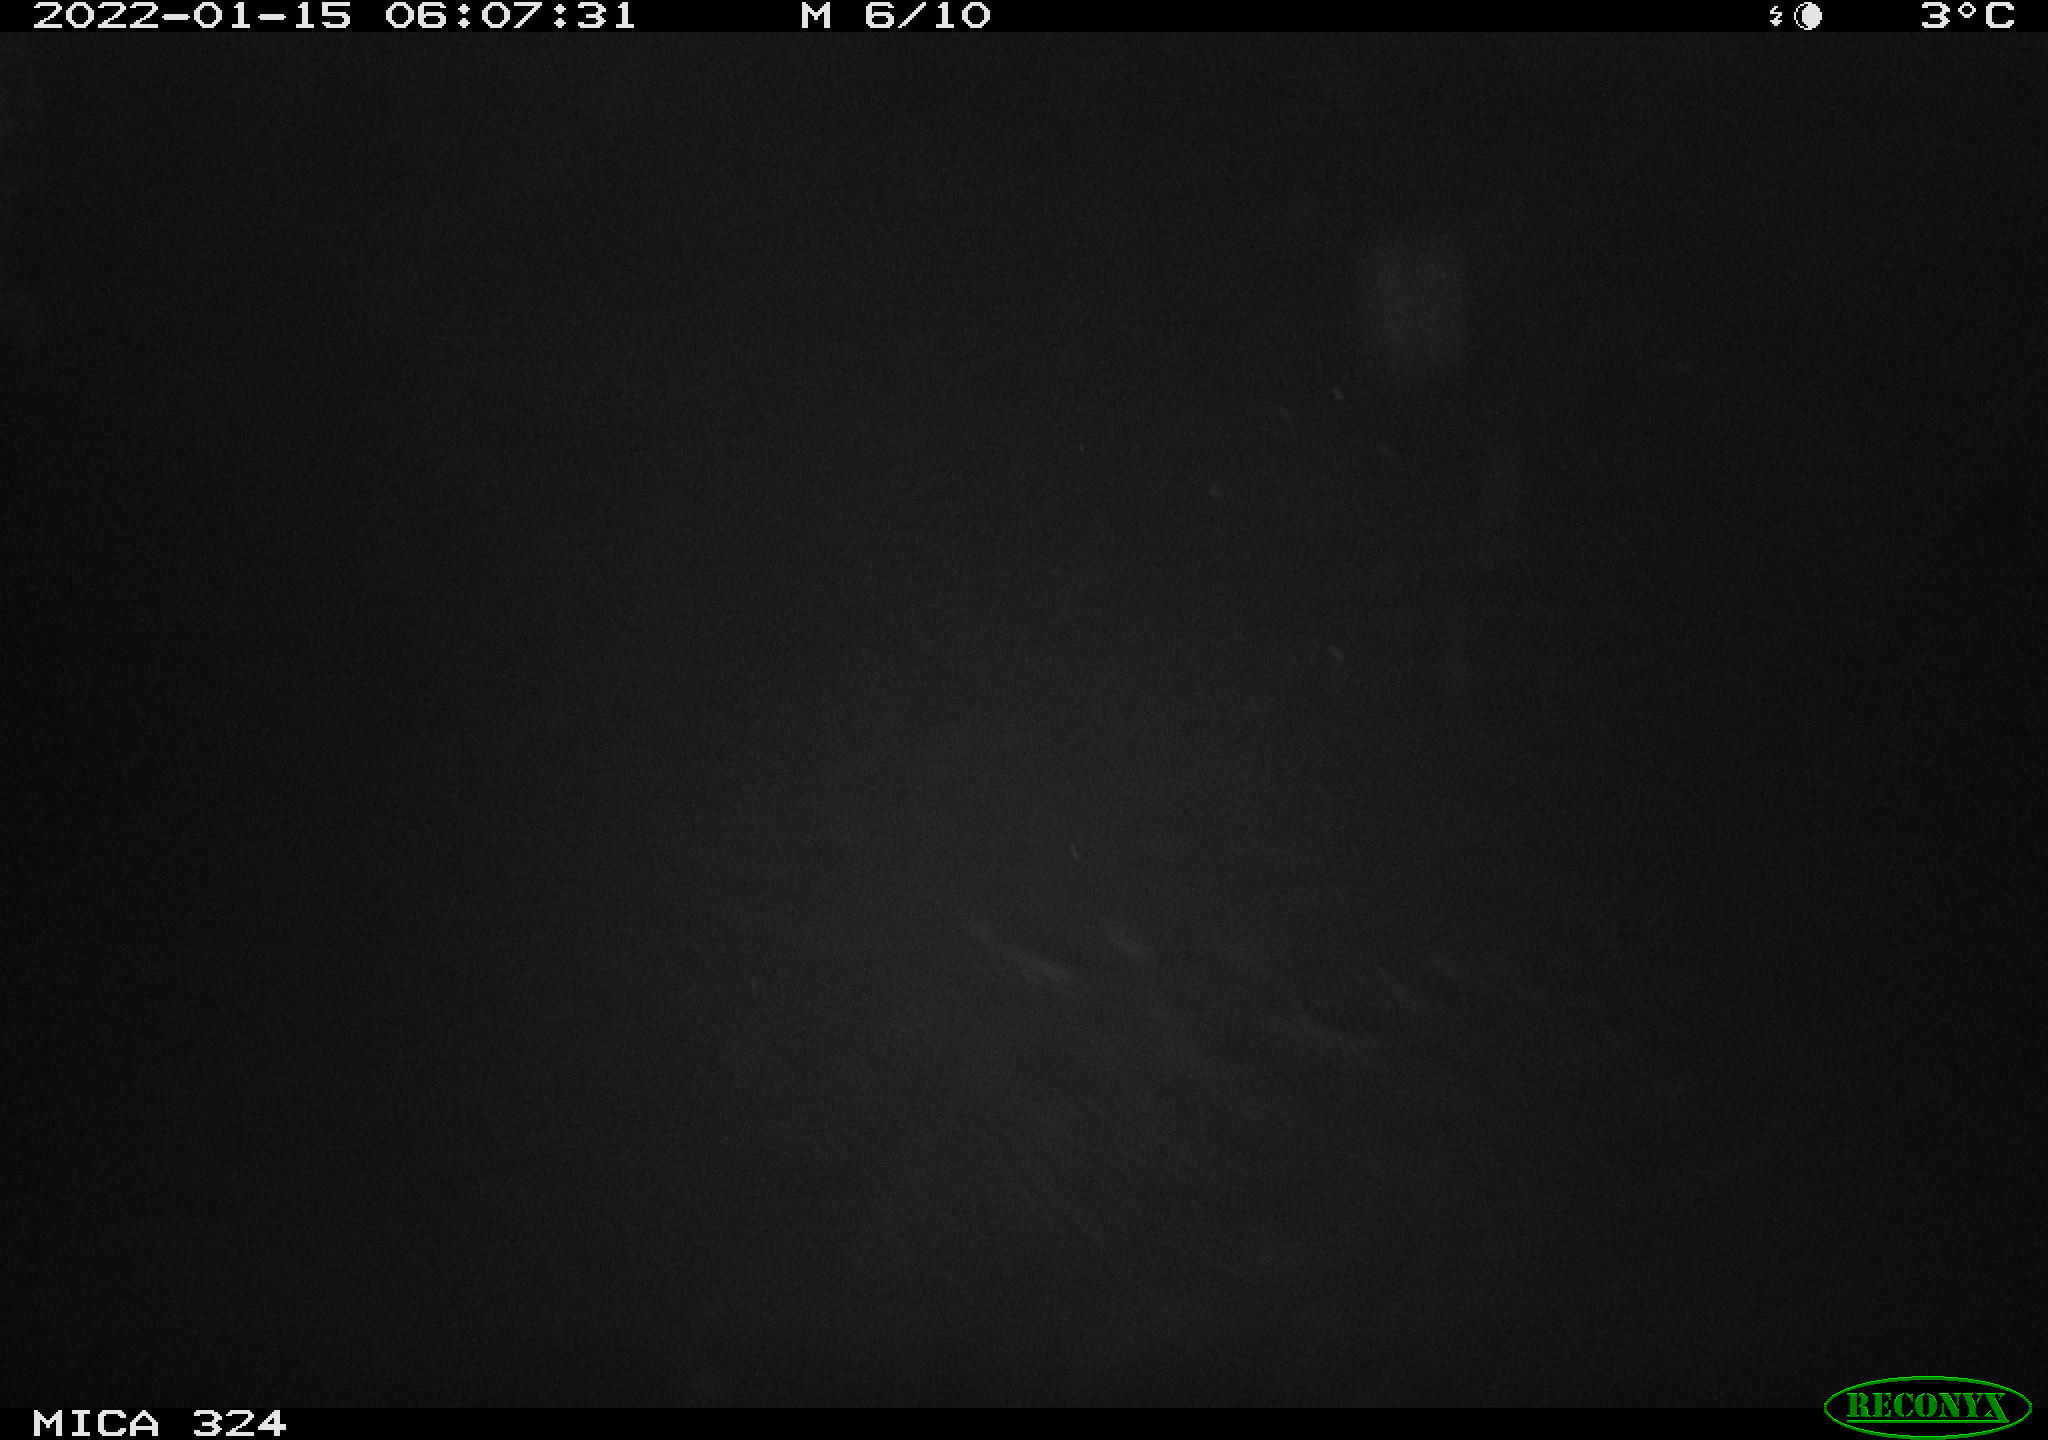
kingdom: Animalia
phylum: Chordata
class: Mammalia
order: Rodentia
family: Cricetidae
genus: Ondatra
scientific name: Ondatra zibethicus
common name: Muskrat
